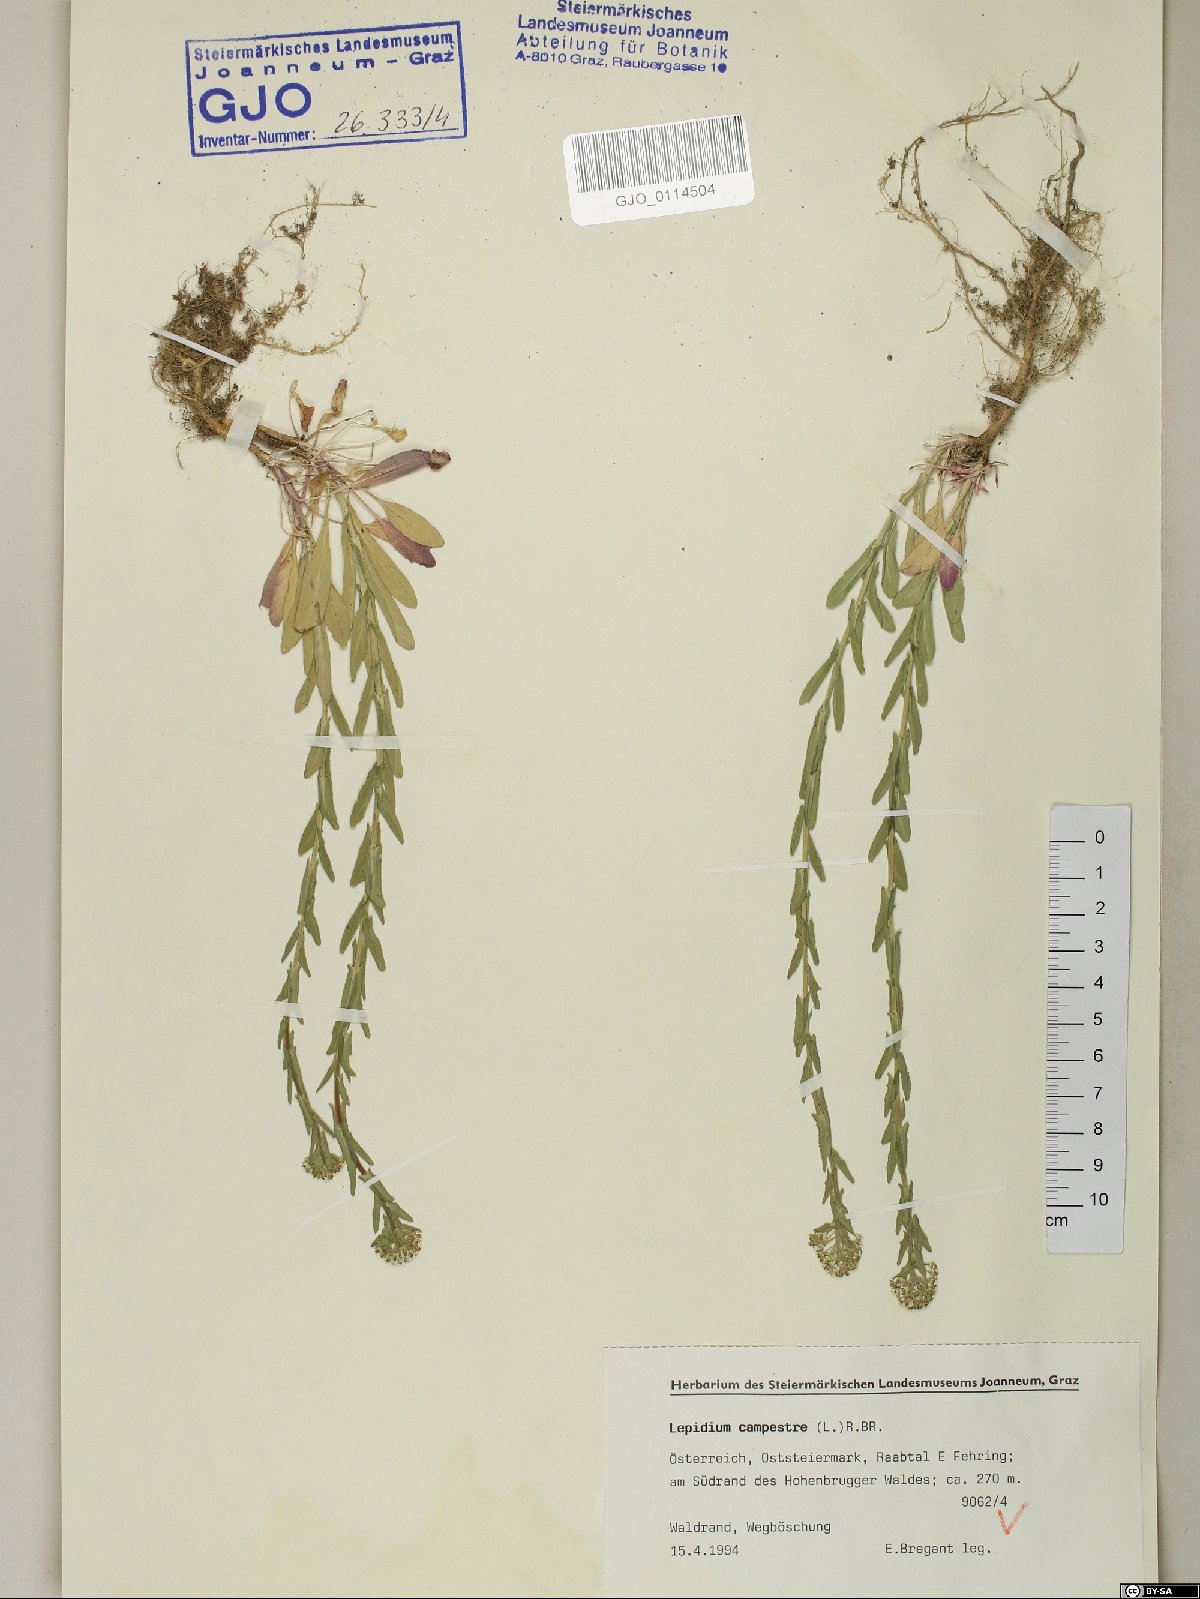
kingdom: Plantae
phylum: Tracheophyta
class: Magnoliopsida
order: Brassicales
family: Brassicaceae
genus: Lepidium
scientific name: Lepidium campestre
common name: Field pepperwort
